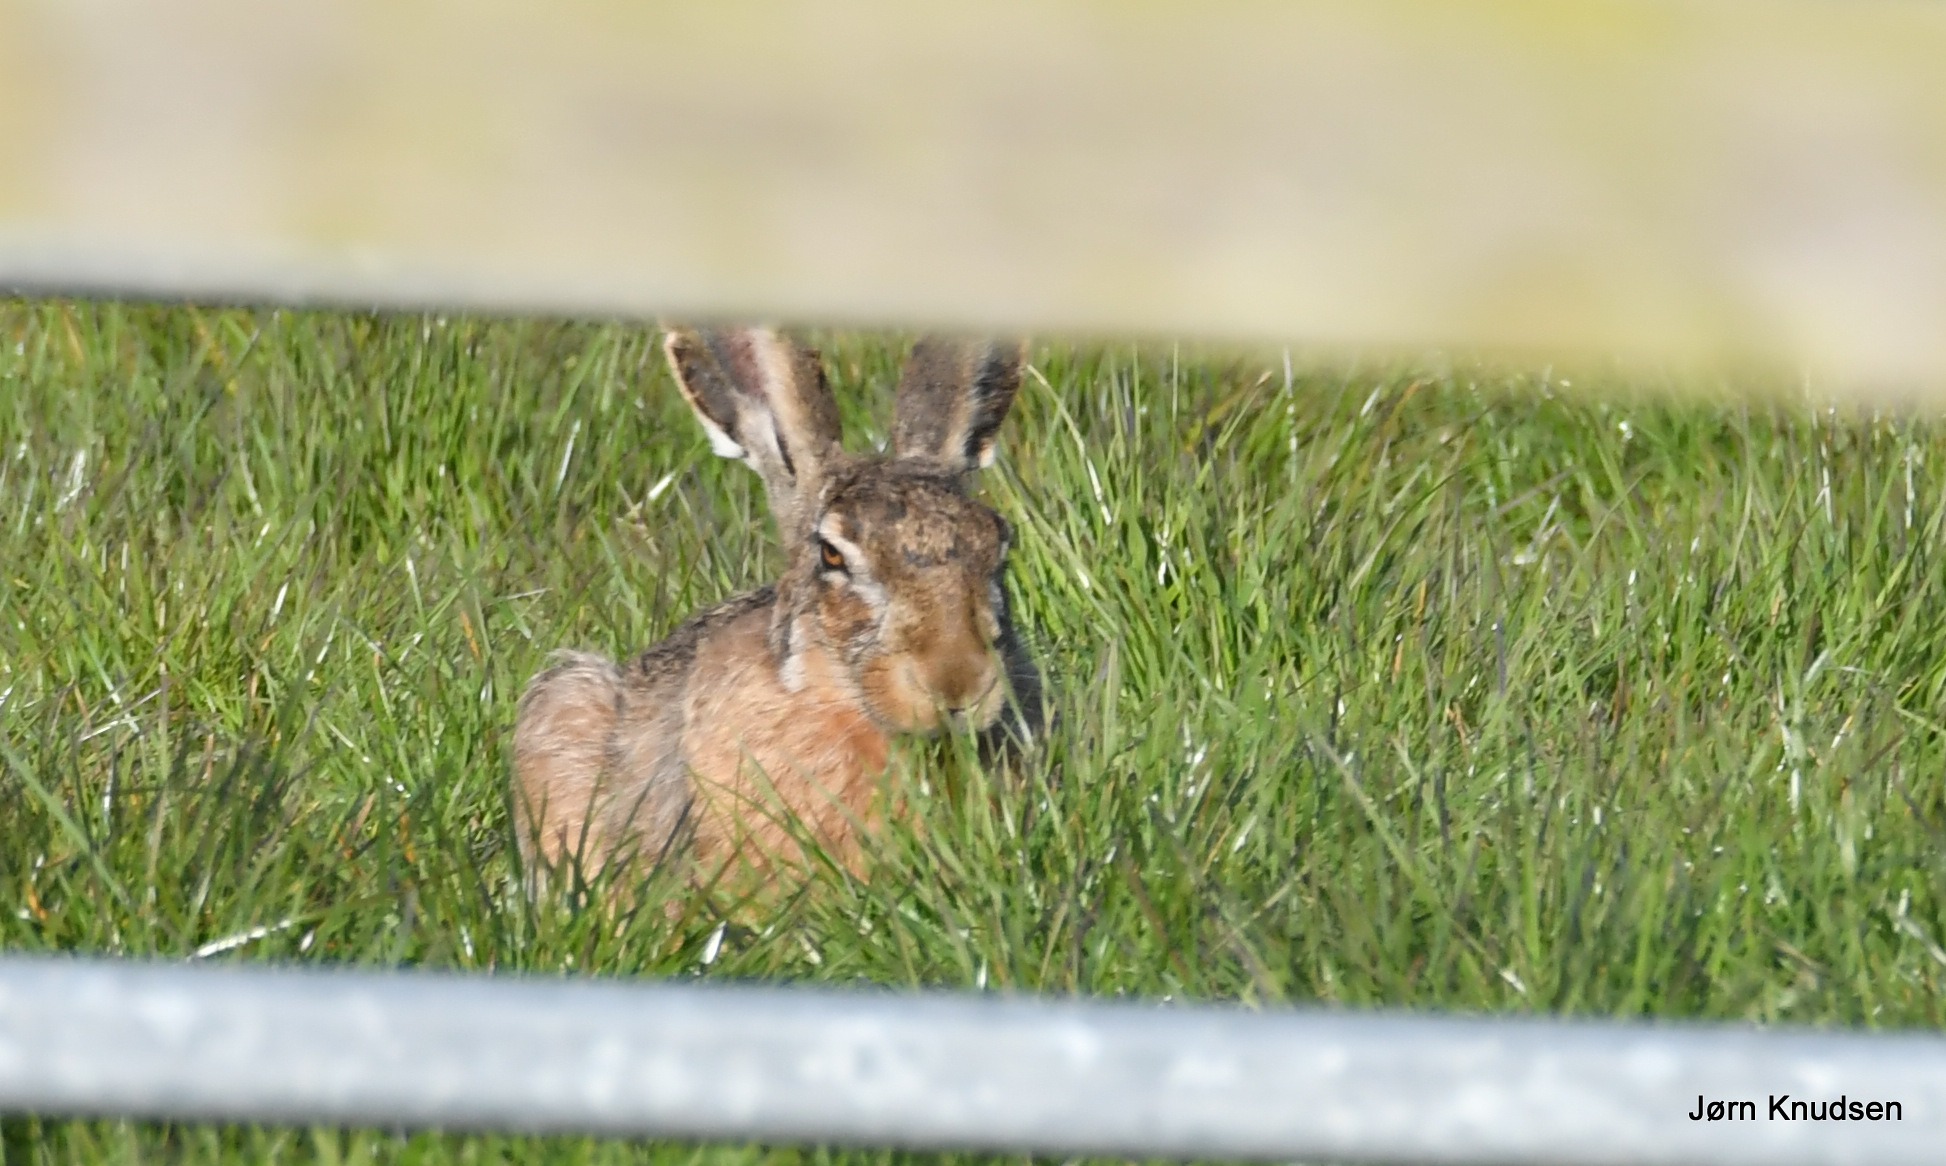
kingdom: Animalia
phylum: Chordata
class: Mammalia
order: Lagomorpha
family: Leporidae
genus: Lepus
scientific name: Lepus europaeus
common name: Hare
